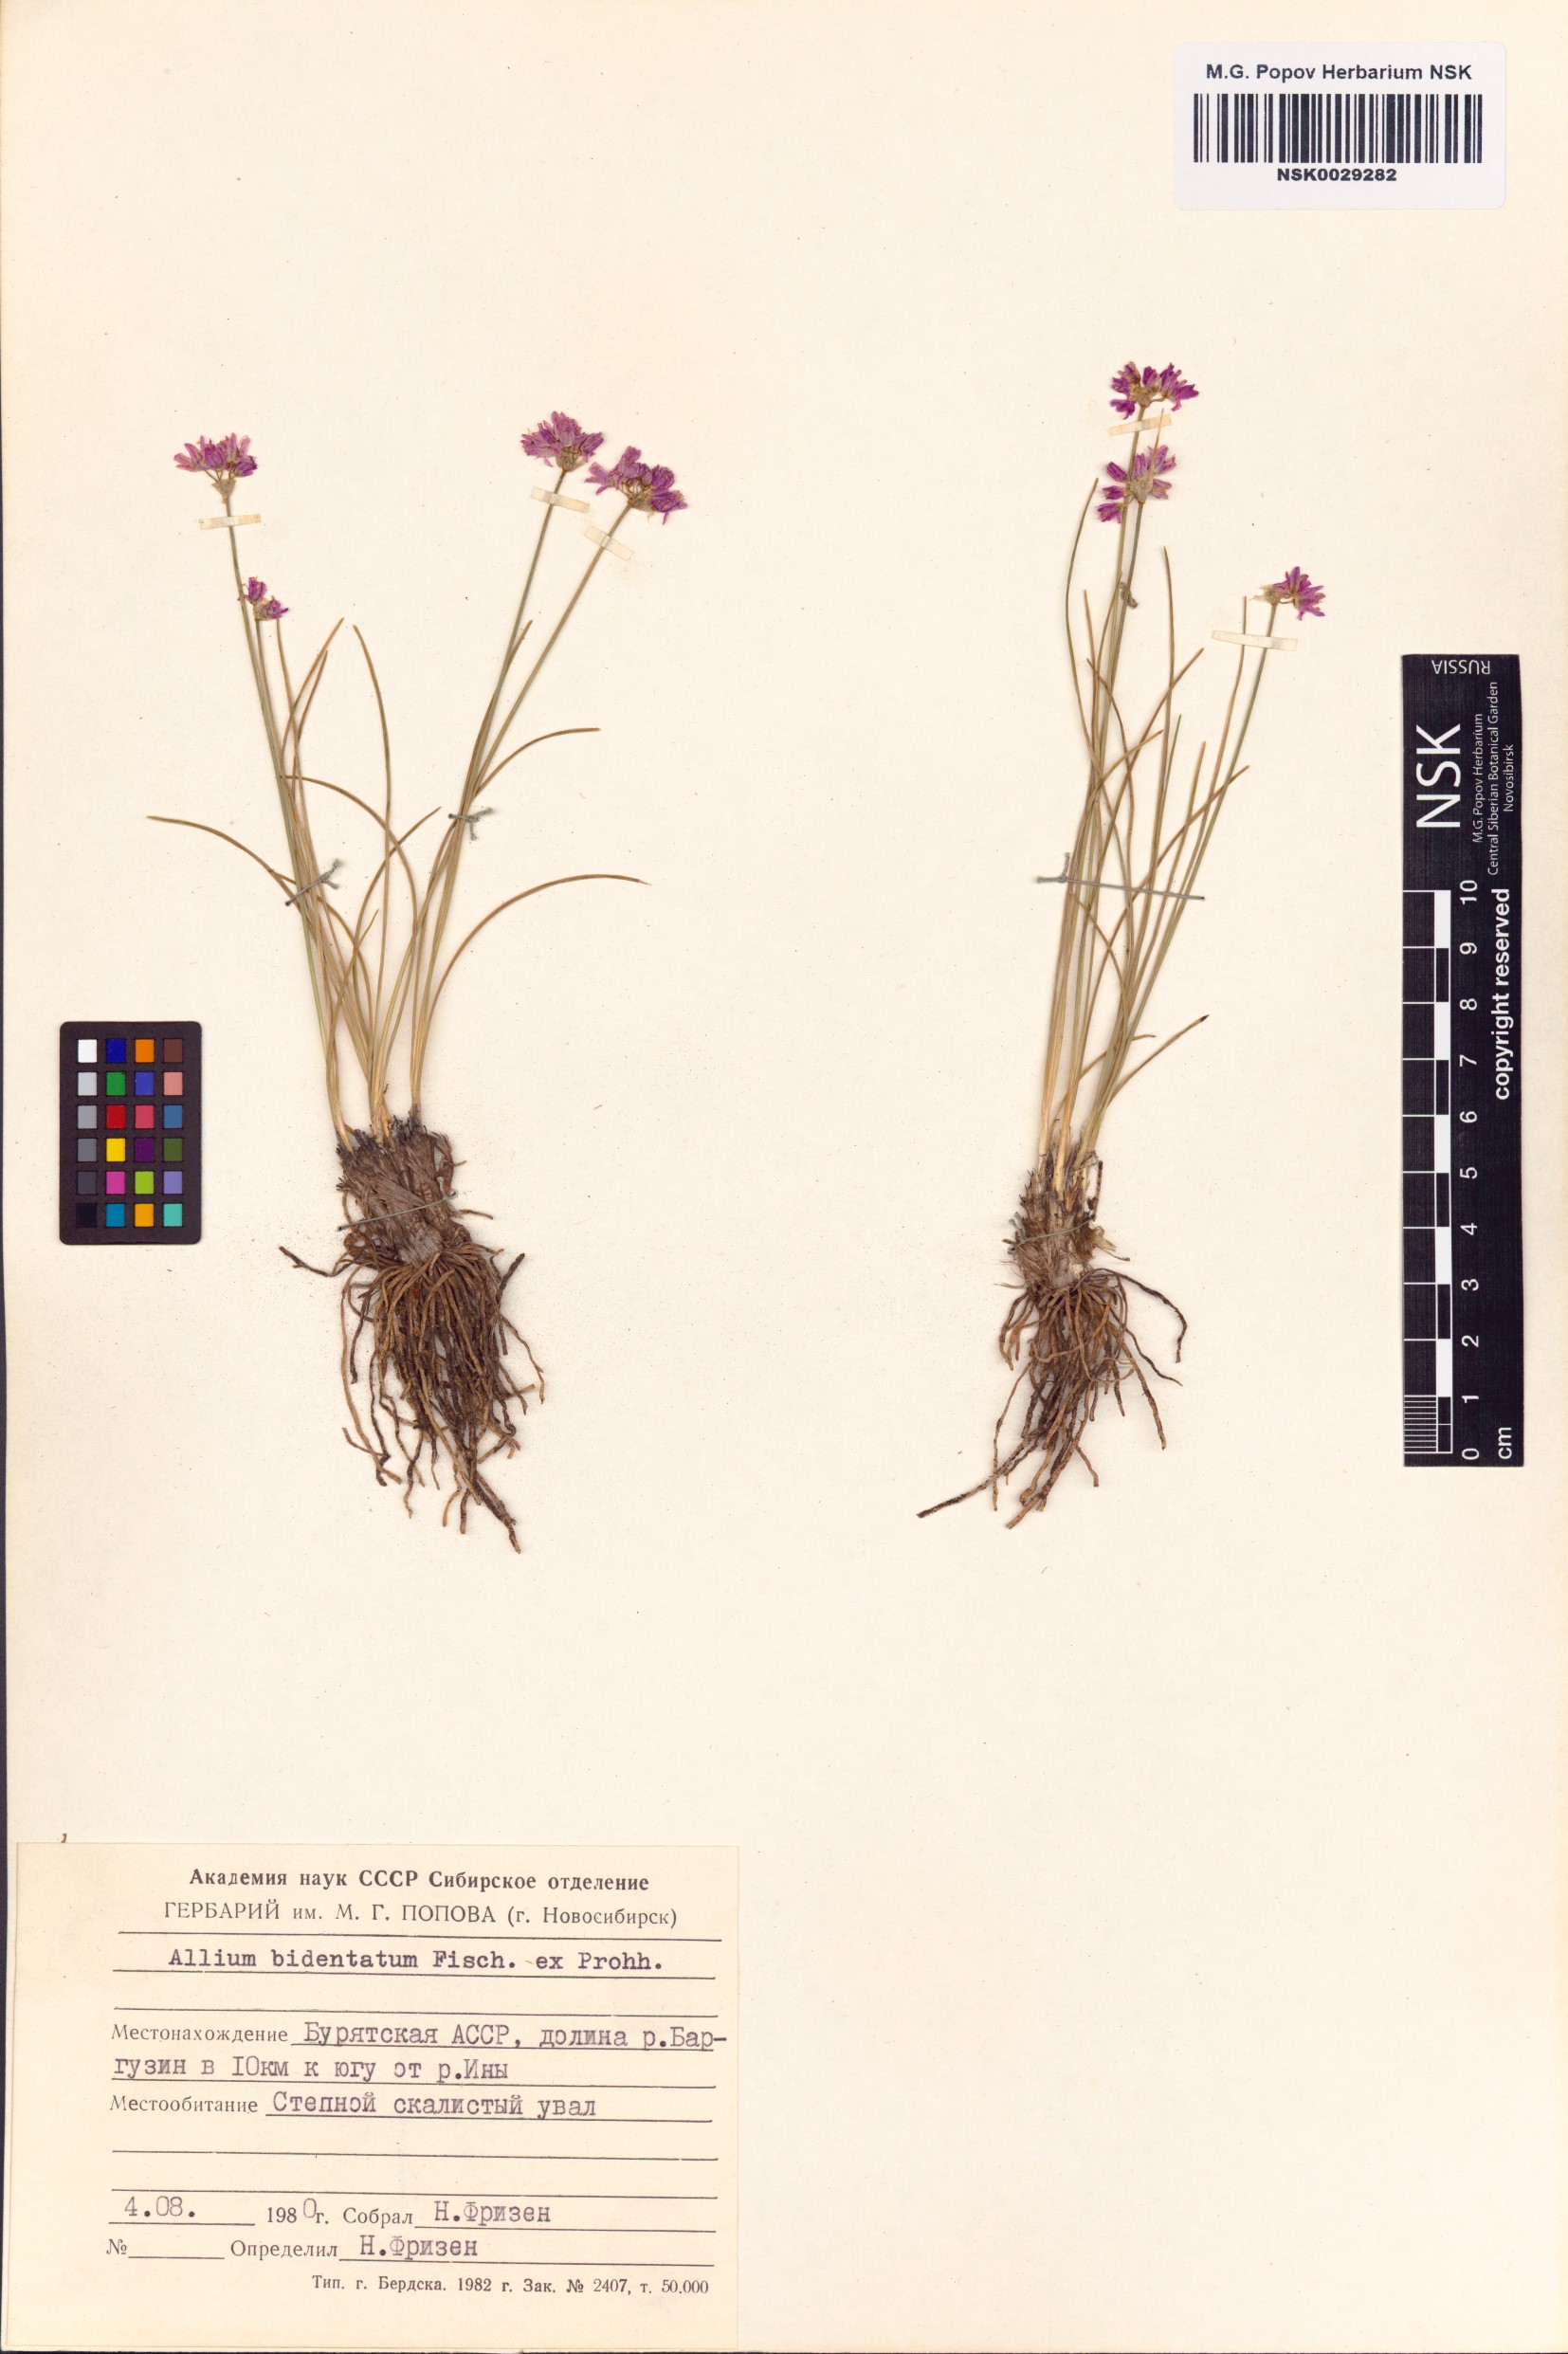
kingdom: Plantae
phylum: Tracheophyta
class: Liliopsida
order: Asparagales
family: Amaryllidaceae
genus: Allium
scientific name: Allium bidentatum
